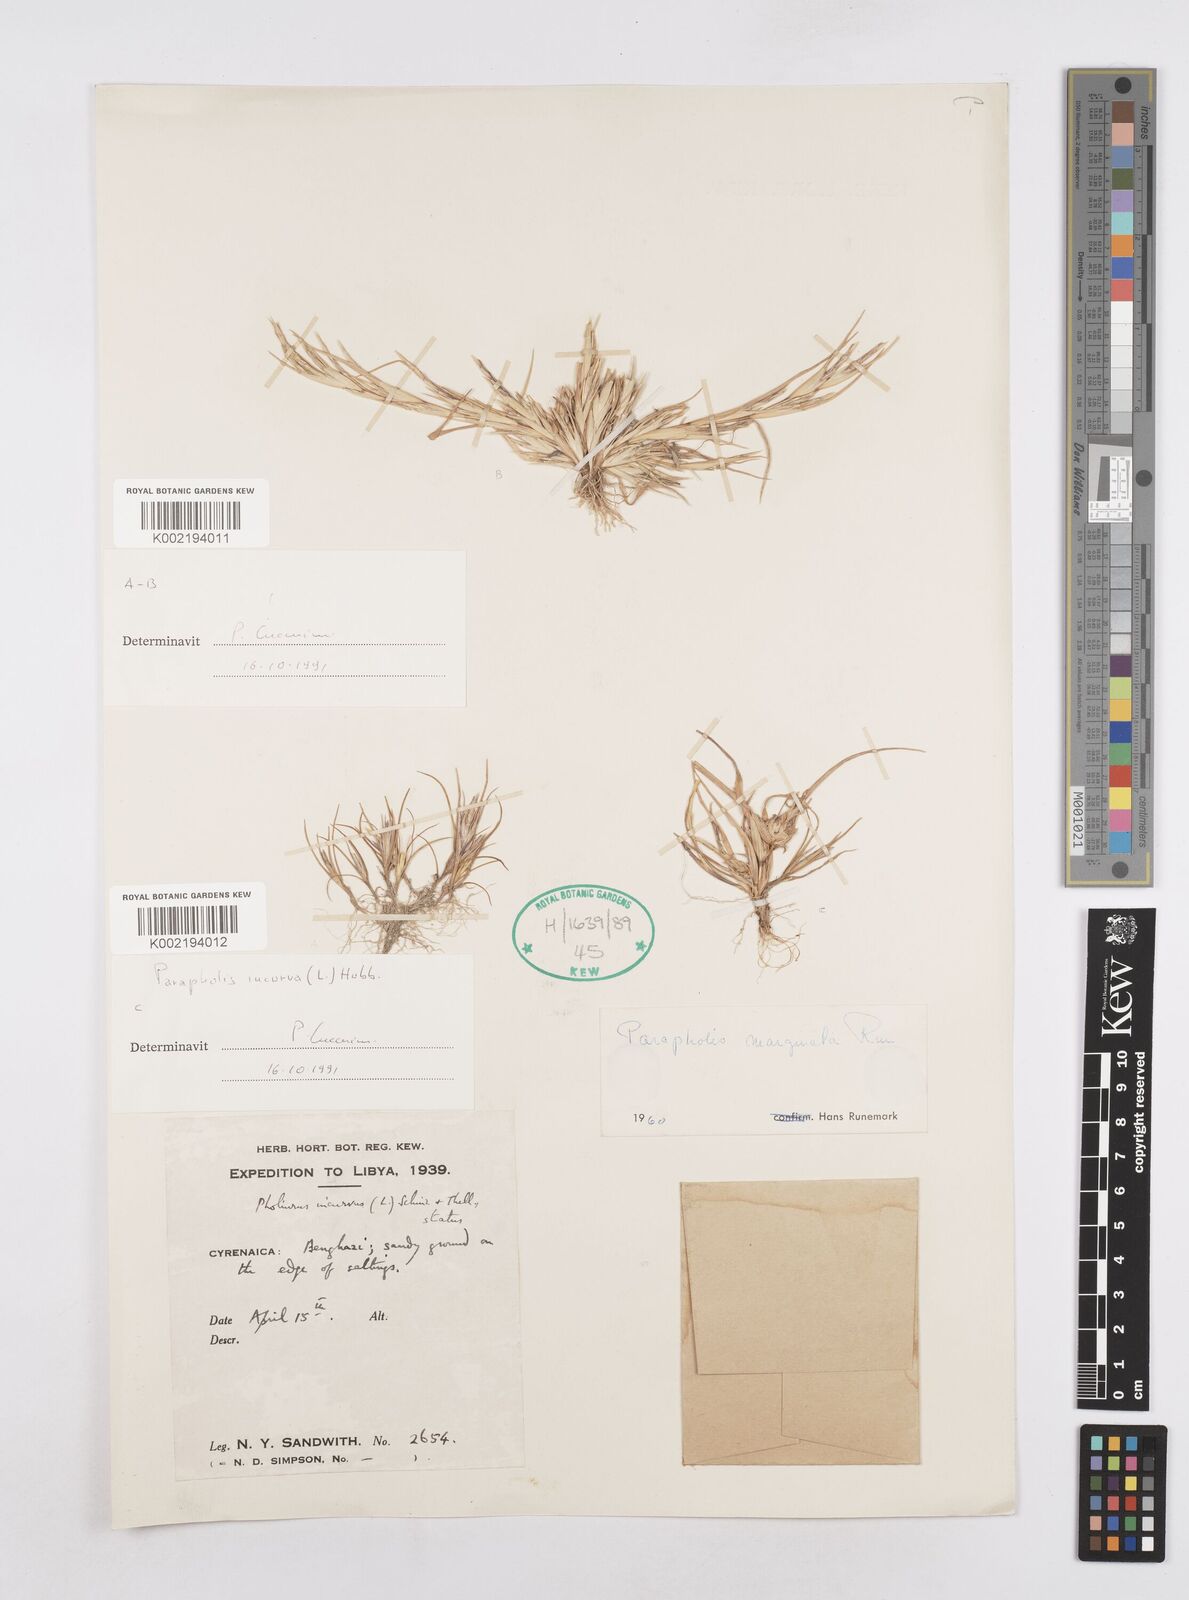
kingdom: Plantae
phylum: Tracheophyta
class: Liliopsida
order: Poales
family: Poaceae
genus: Parapholis
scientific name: Parapholis marginata
